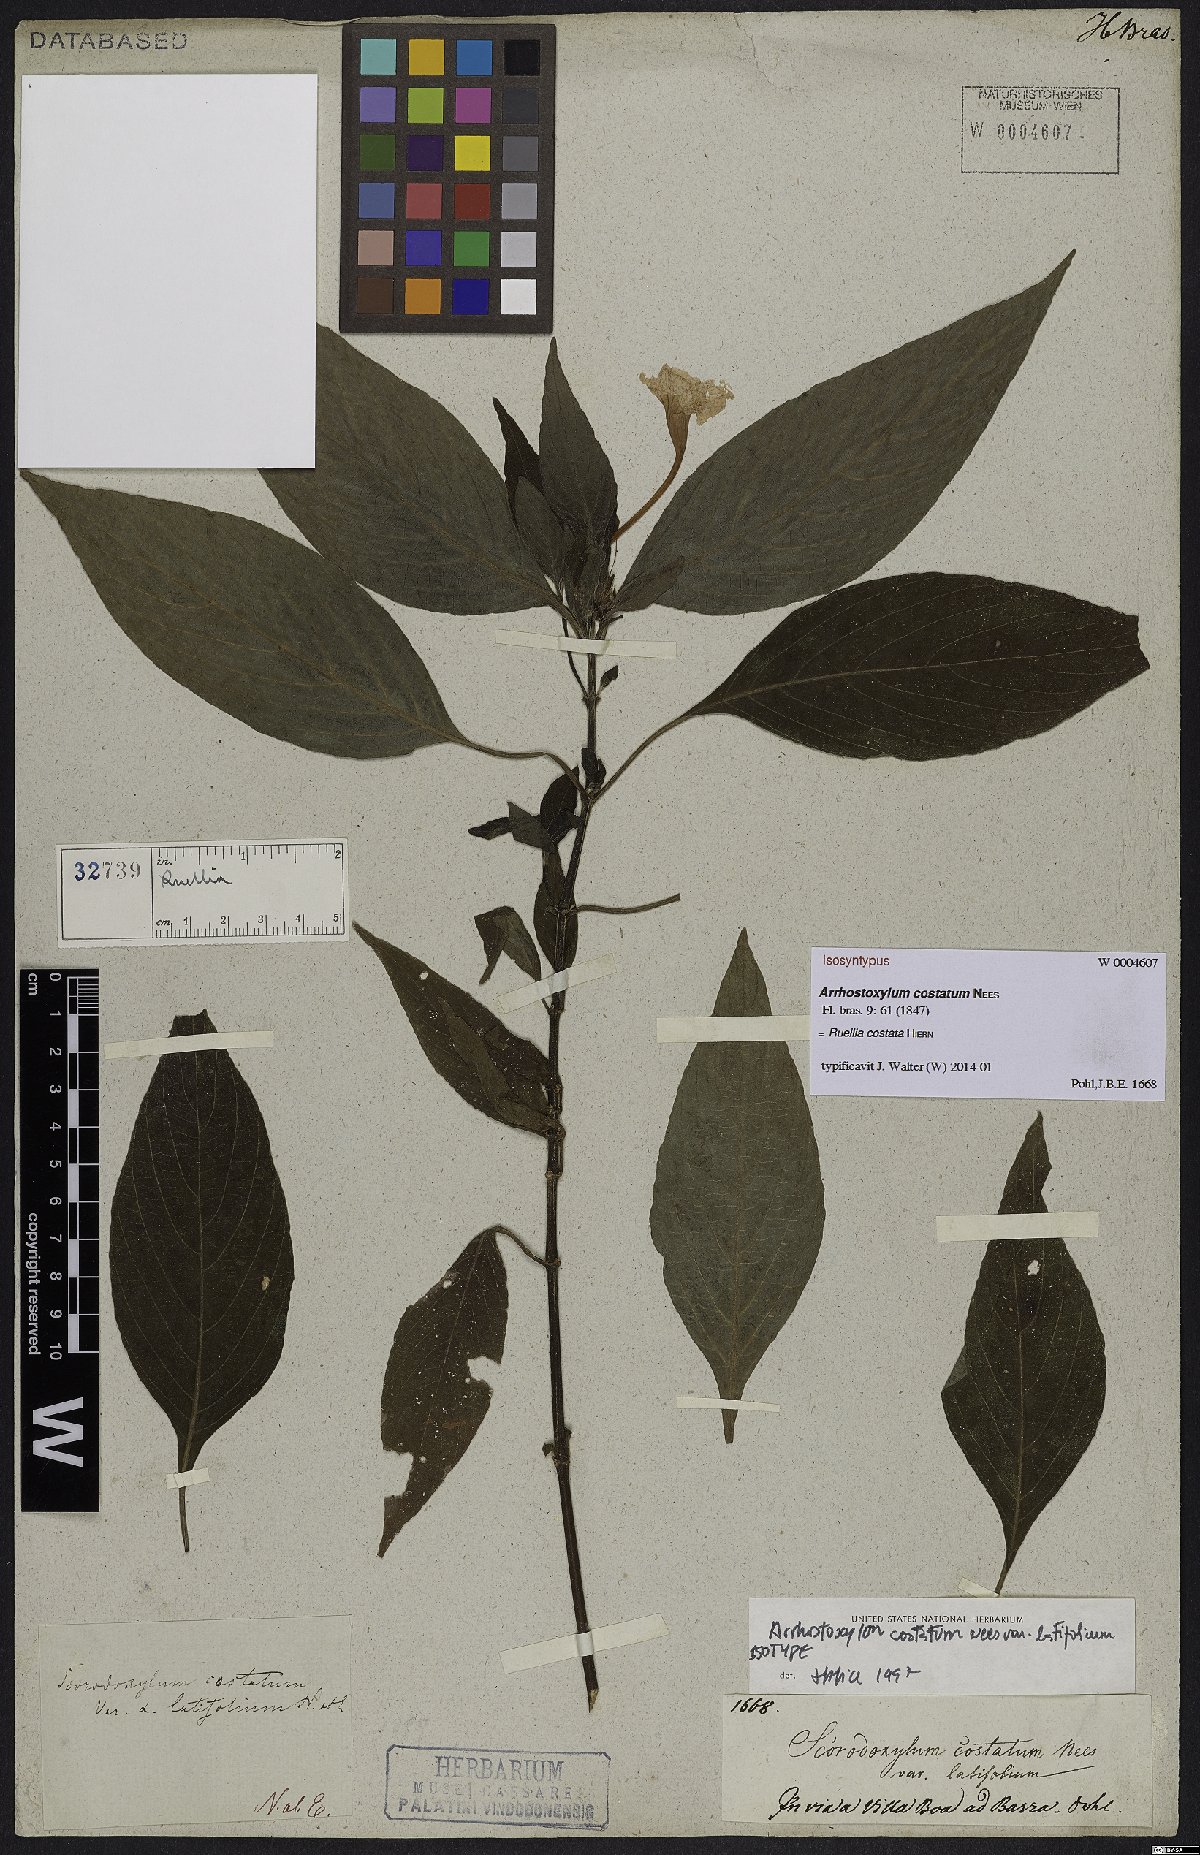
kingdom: Plantae
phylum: Tracheophyta
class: Magnoliopsida
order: Lamiales
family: Acanthaceae
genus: Ruellia
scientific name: Ruellia costata
